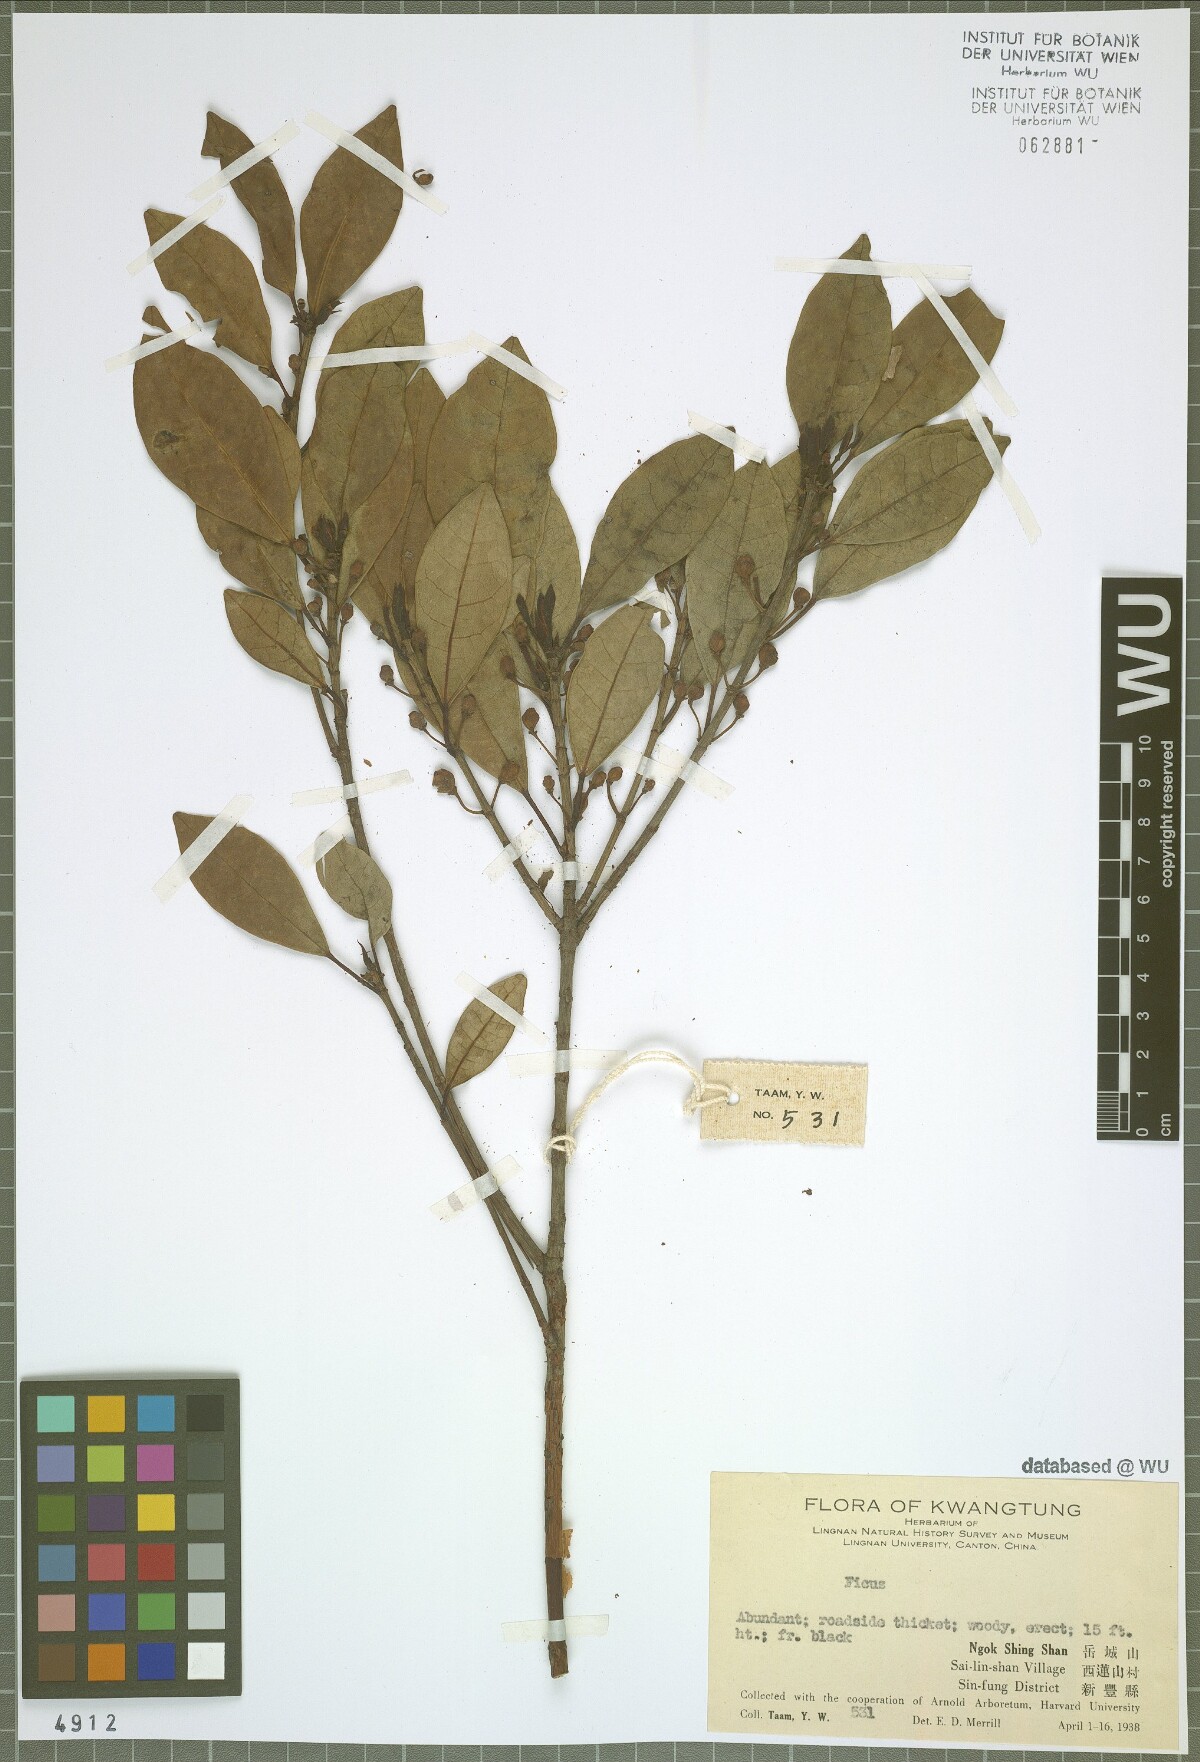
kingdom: Plantae
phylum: Tracheophyta
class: Magnoliopsida
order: Rosales
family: Moraceae
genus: Ficus
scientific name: Ficus
